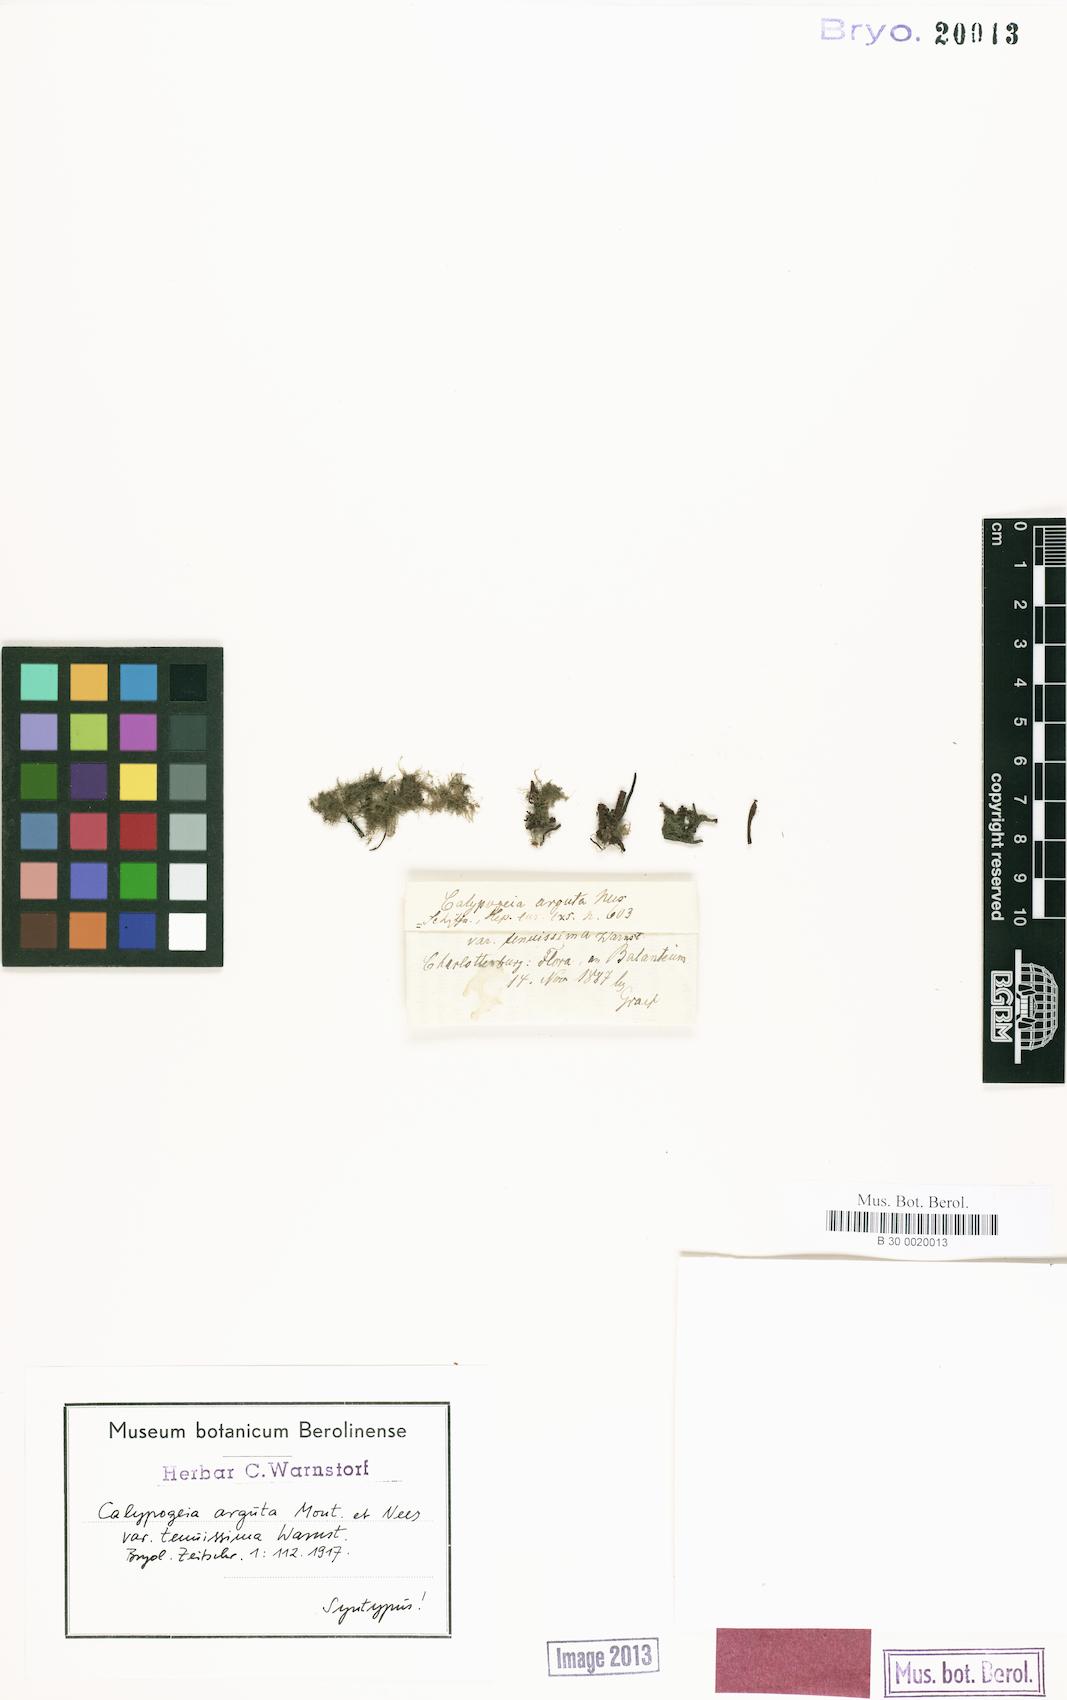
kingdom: Plantae
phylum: Marchantiophyta
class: Jungermanniopsida
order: Jungermanniales
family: Calypogeiaceae
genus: Asperifolia
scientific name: Asperifolia arguta
